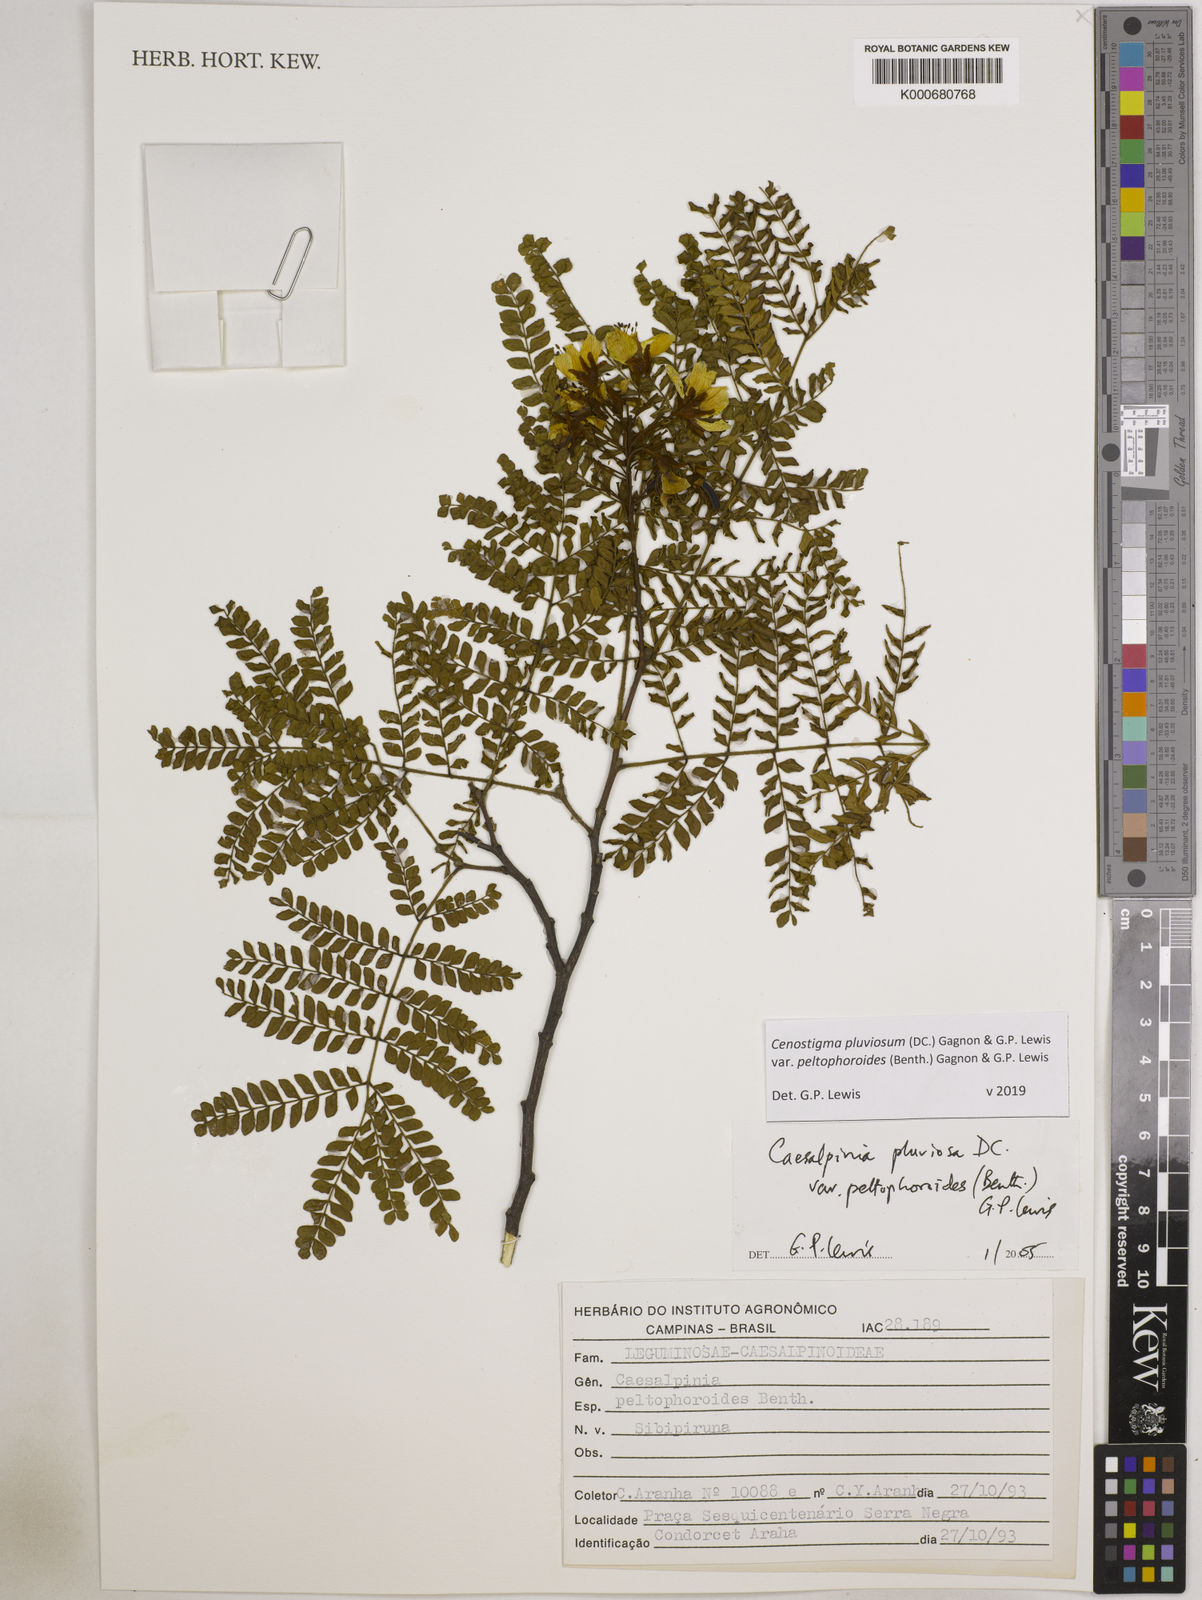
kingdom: Plantae
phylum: Tracheophyta
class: Magnoliopsida
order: Fabales
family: Fabaceae
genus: Cenostigma
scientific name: Cenostigma pluviosum
